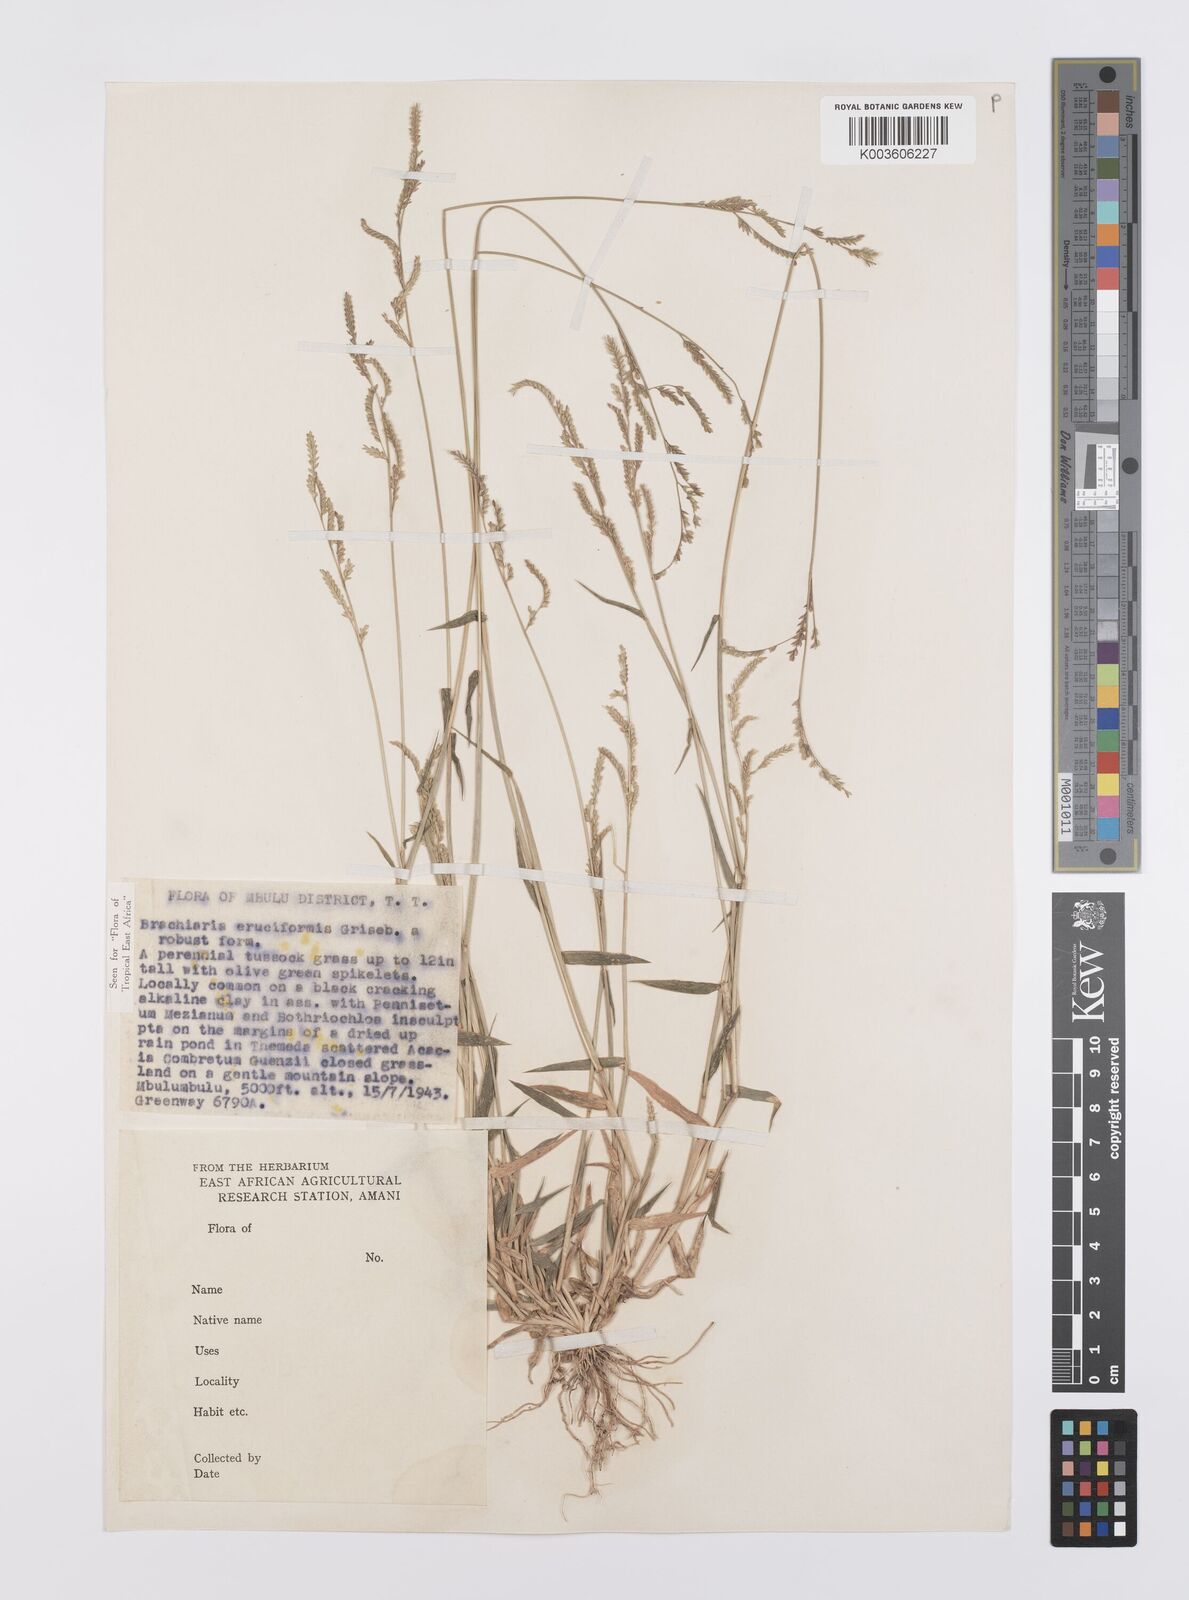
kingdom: Plantae
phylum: Tracheophyta
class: Liliopsida
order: Poales
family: Poaceae
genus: Moorochloa
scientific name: Moorochloa eruciformis
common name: Sweet signalgrass
